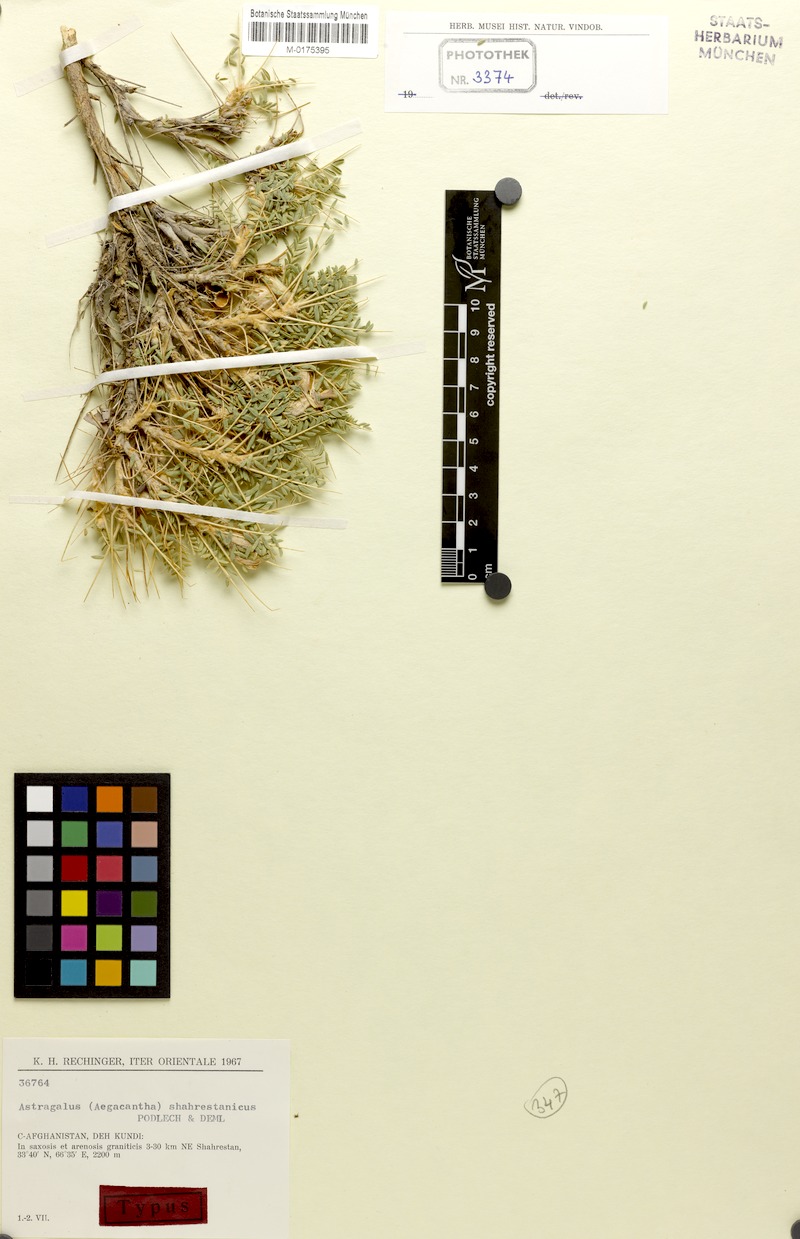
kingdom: Plantae
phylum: Tracheophyta
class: Magnoliopsida
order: Fabales
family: Fabaceae
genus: Astragalus
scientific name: Astragalus sharestanicus
